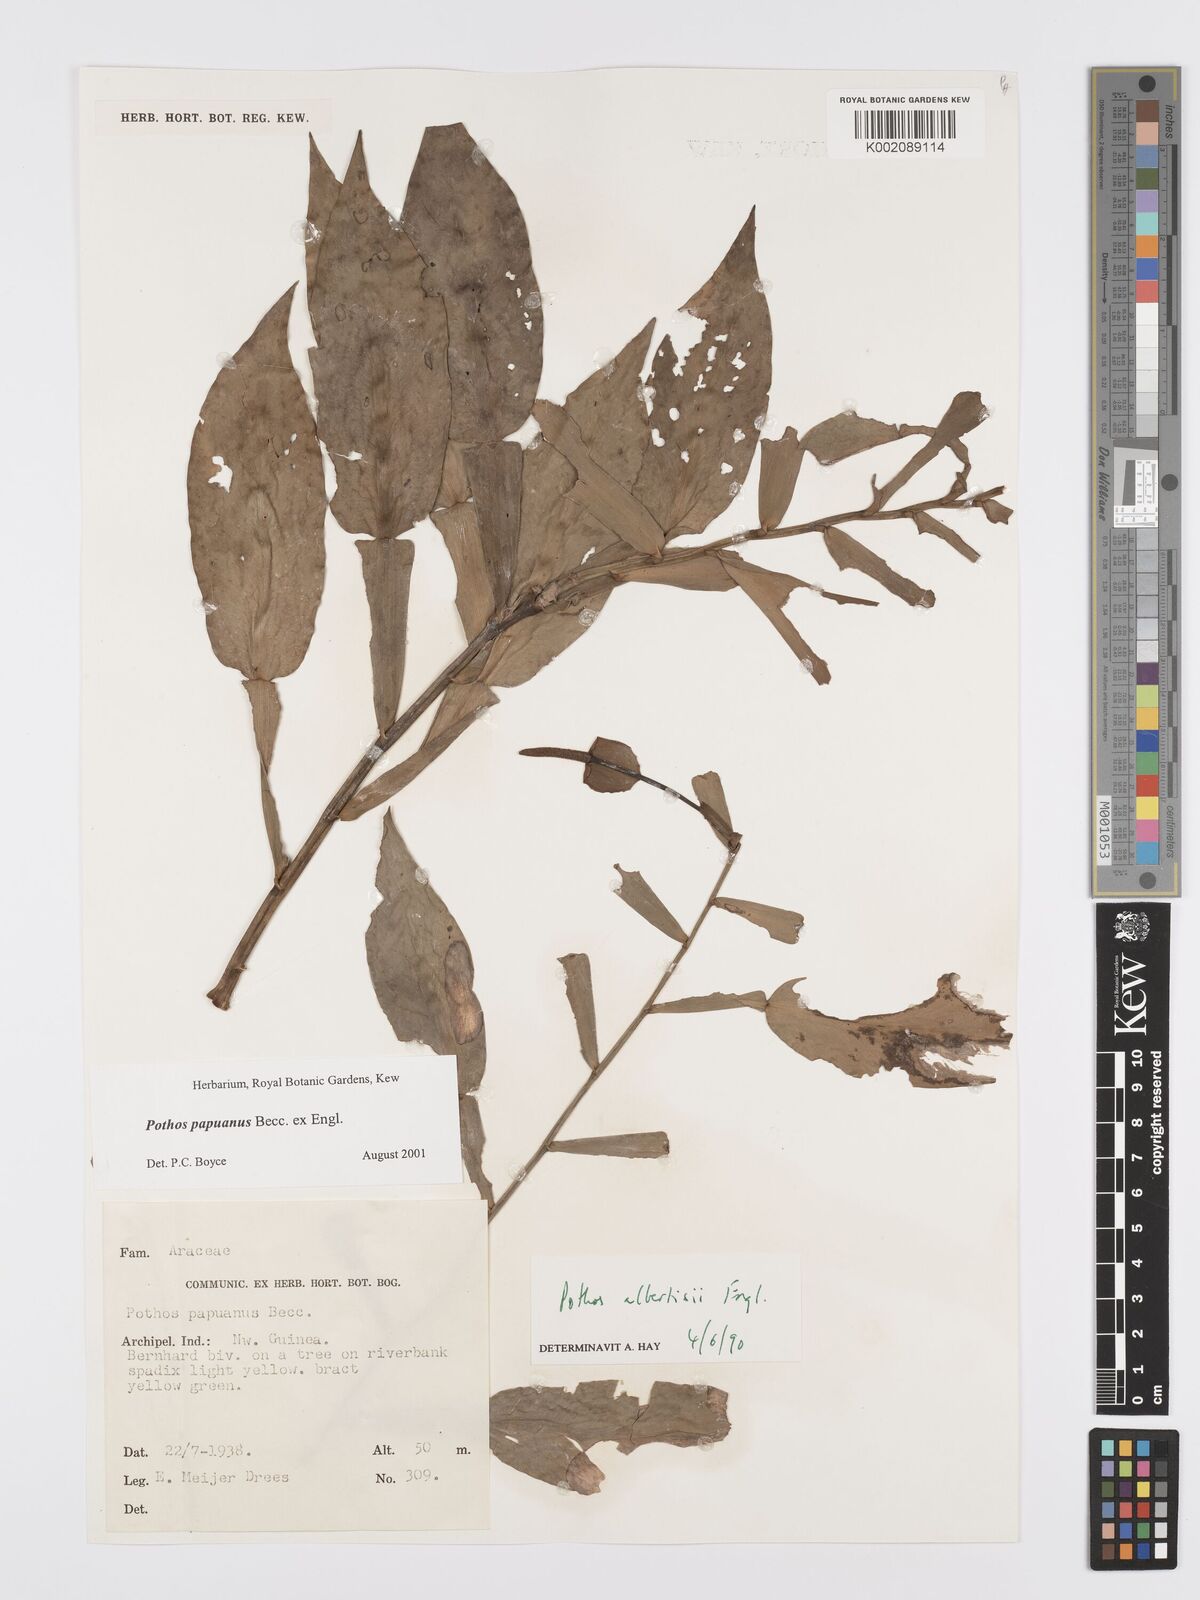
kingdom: Plantae
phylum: Tracheophyta
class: Liliopsida
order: Alismatales
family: Araceae
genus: Pothos
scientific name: Pothos papuanus
